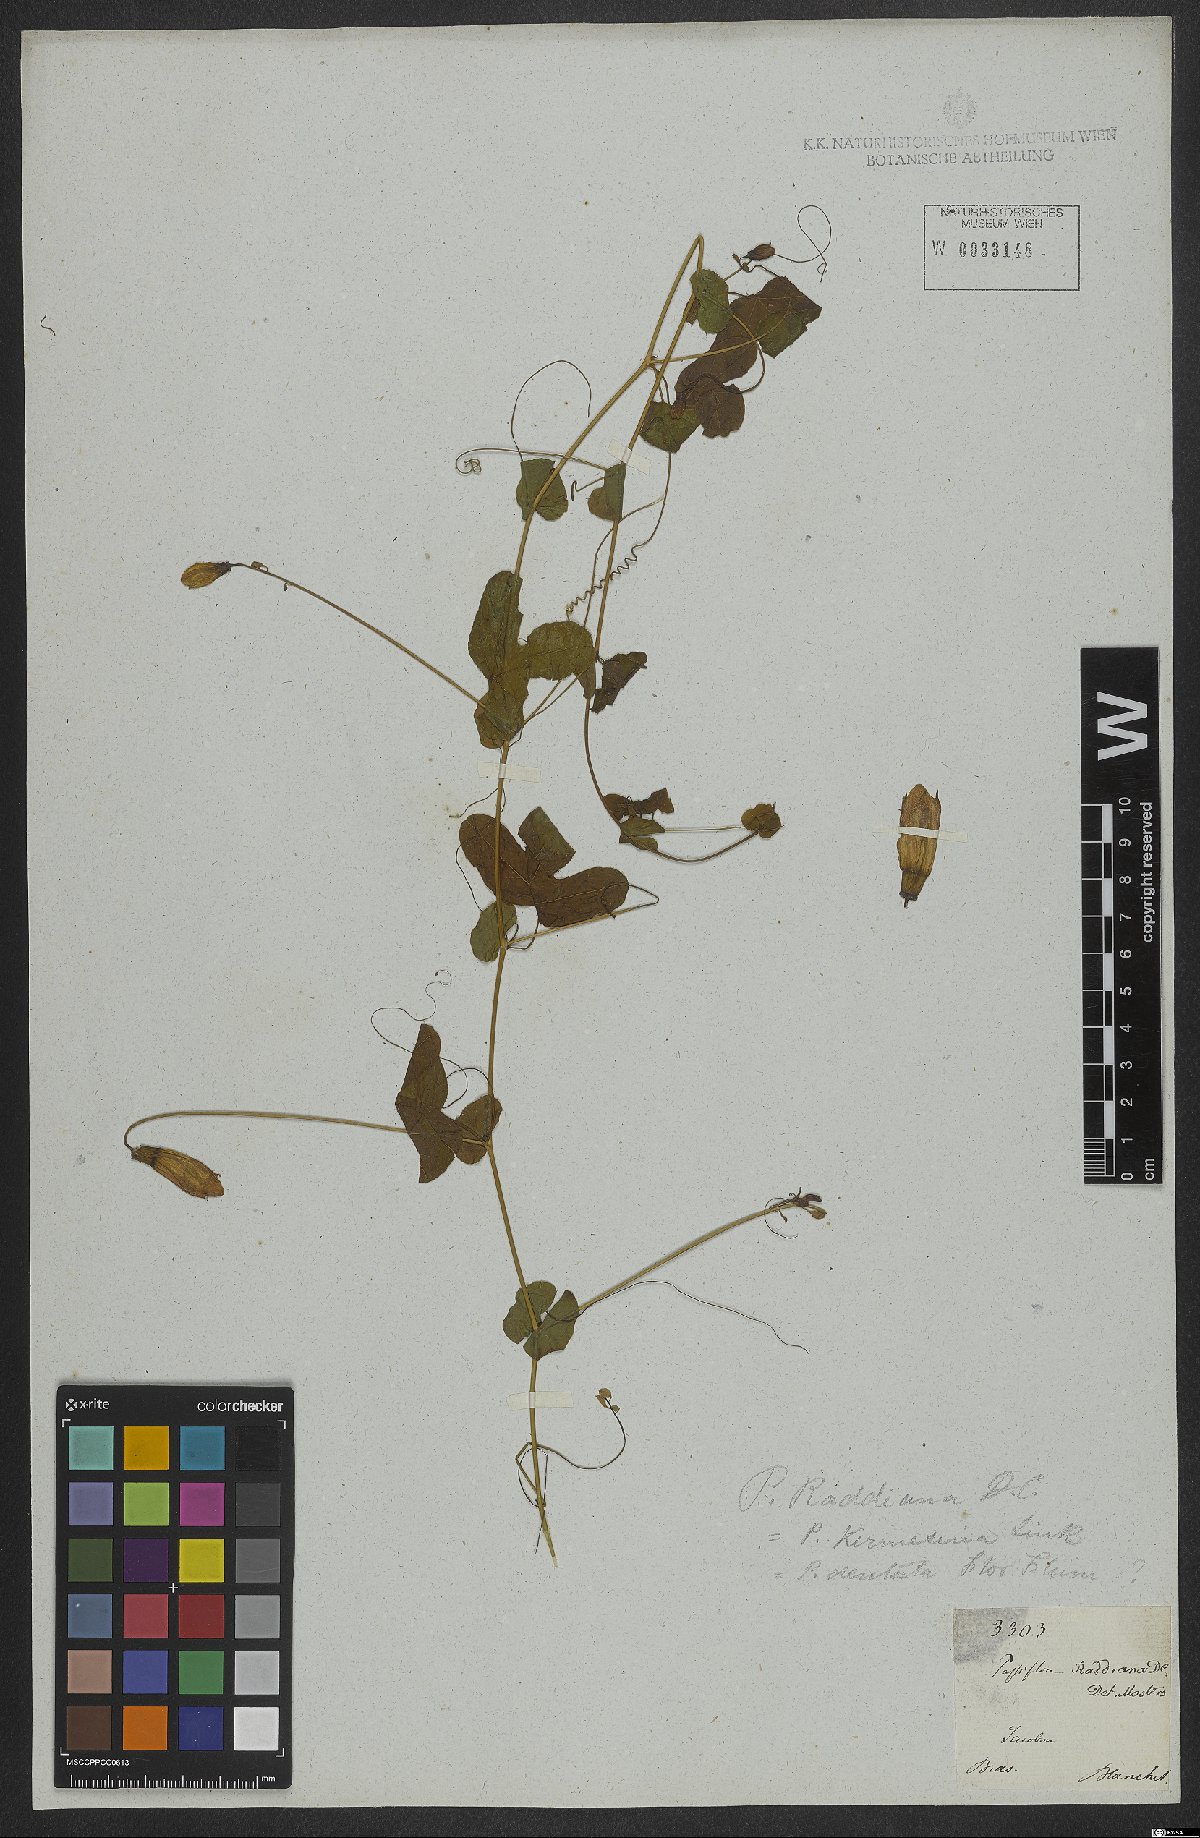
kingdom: Plantae
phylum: Tracheophyta
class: Magnoliopsida
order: Malpighiales
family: Passifloraceae
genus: Passiflora
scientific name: Passiflora kermesina
